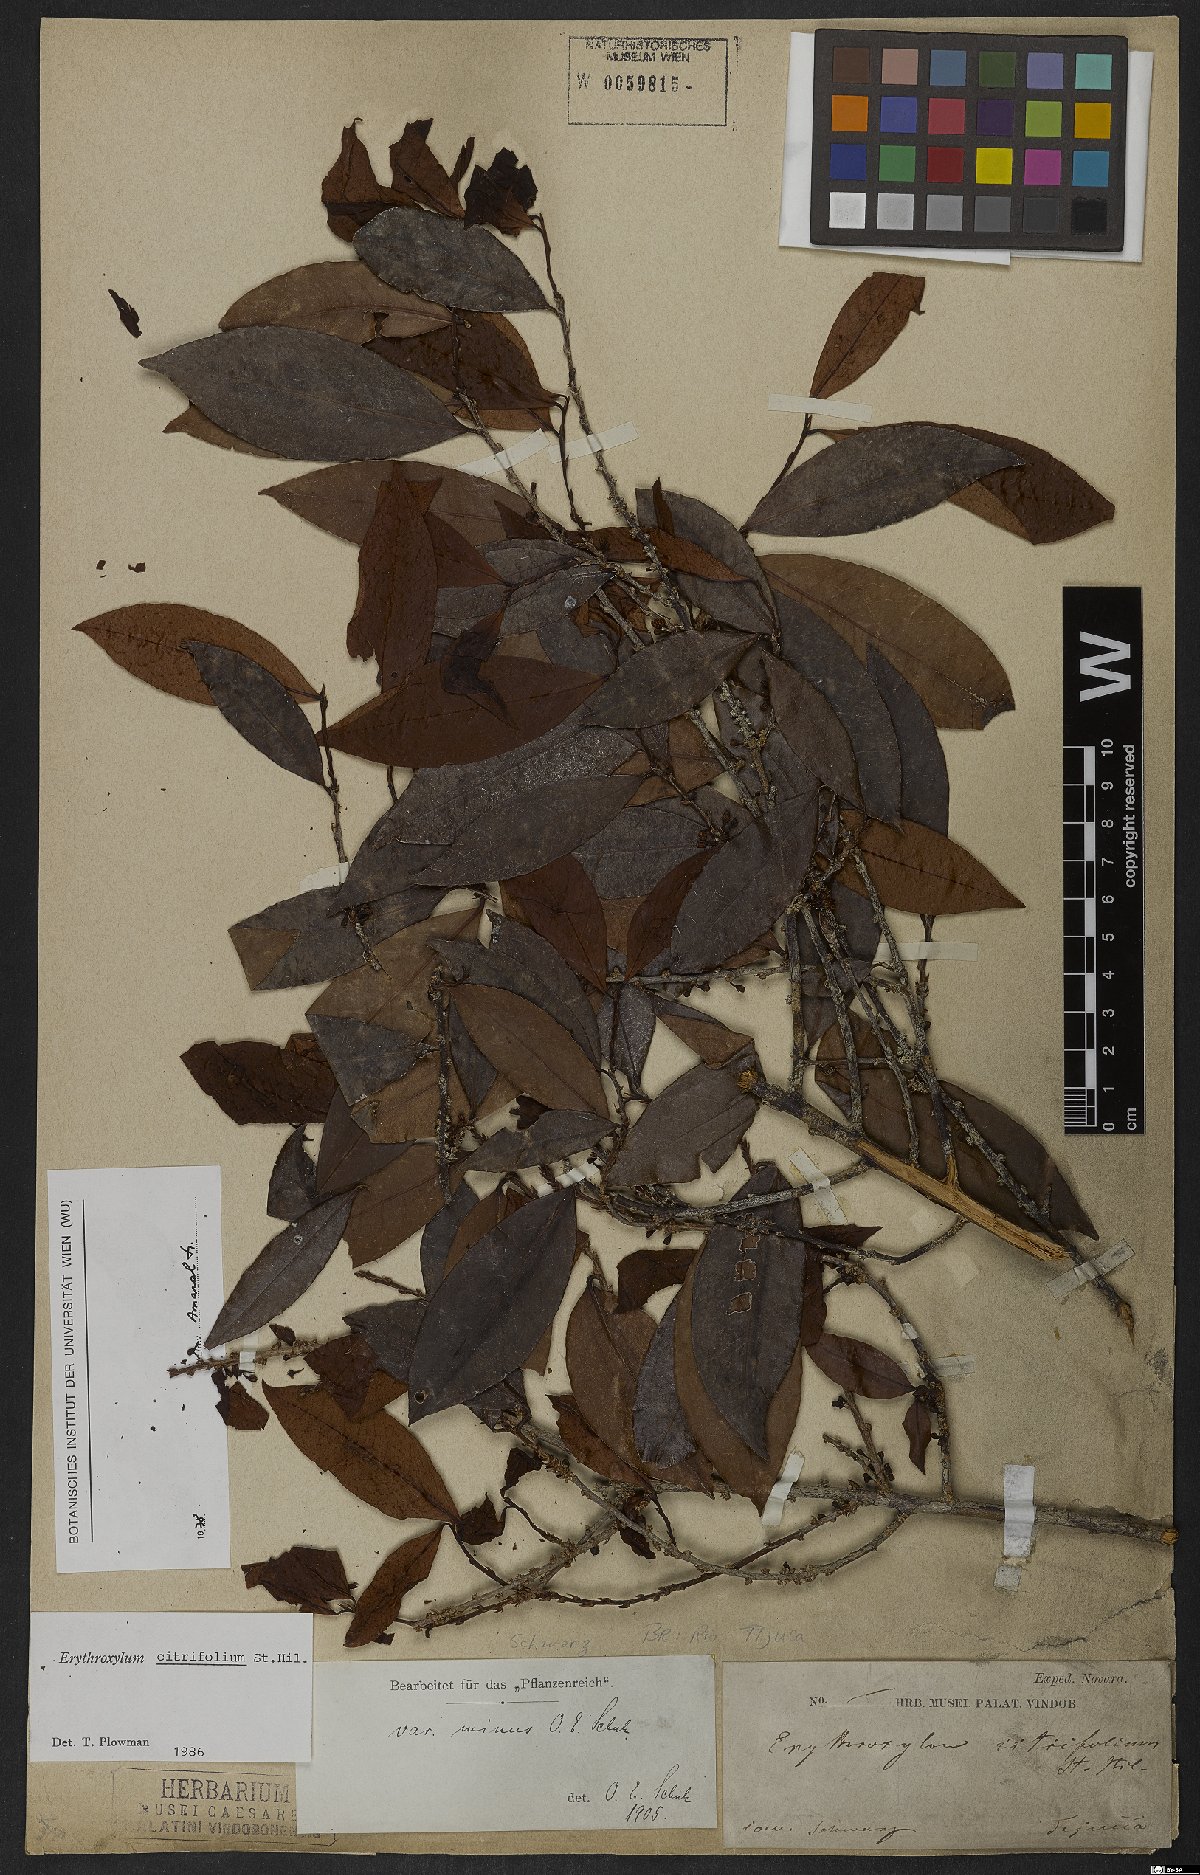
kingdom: Plantae
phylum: Tracheophyta
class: Magnoliopsida
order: Malpighiales
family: Erythroxylaceae
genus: Erythroxylum
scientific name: Erythroxylum citrifolium
